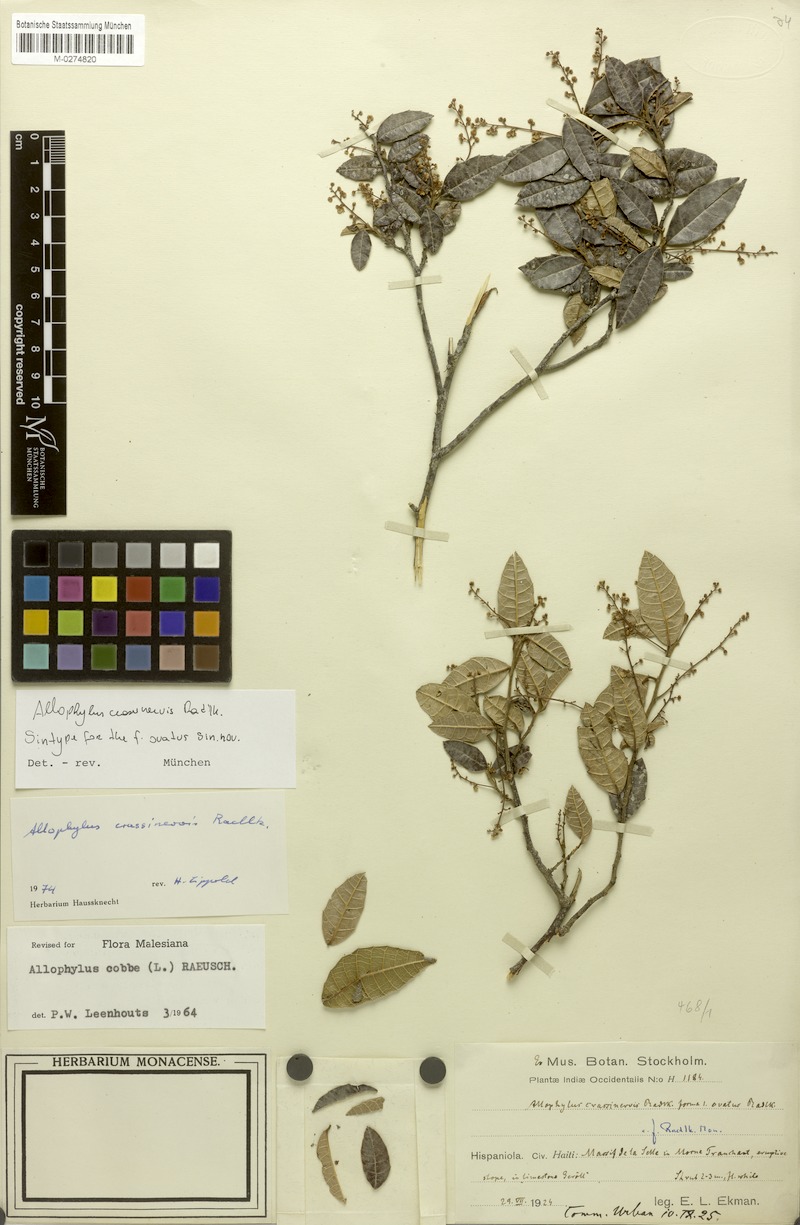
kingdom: Plantae
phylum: Tracheophyta
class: Magnoliopsida
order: Sapindales
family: Sapindaceae
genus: Allophylus
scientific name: Allophylus crassinervis
